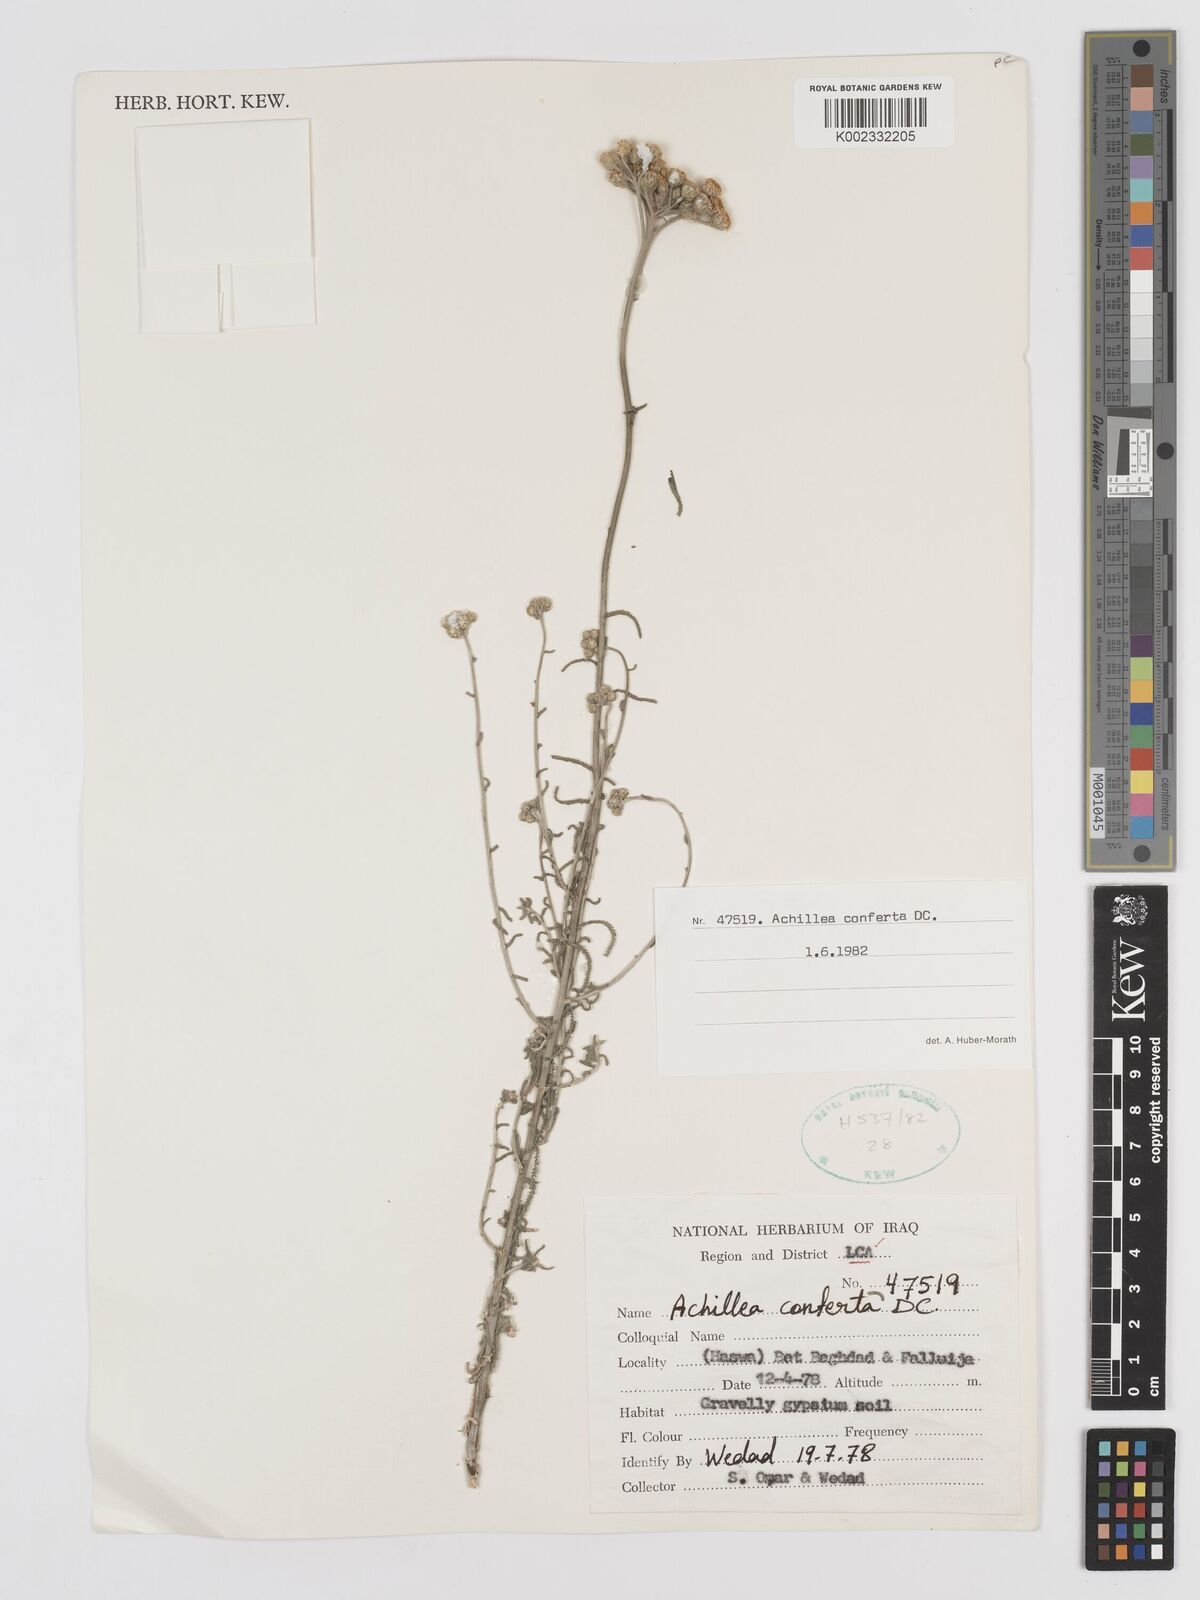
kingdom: Plantae
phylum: Tracheophyta
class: Magnoliopsida
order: Asterales
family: Asteraceae
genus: Achillea
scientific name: Achillea conferta
